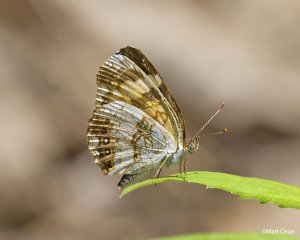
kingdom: Animalia
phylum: Arthropoda
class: Insecta
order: Lepidoptera
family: Nymphalidae
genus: Chlosyne
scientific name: Chlosyne nycteis
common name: Silvery Checkerspot
